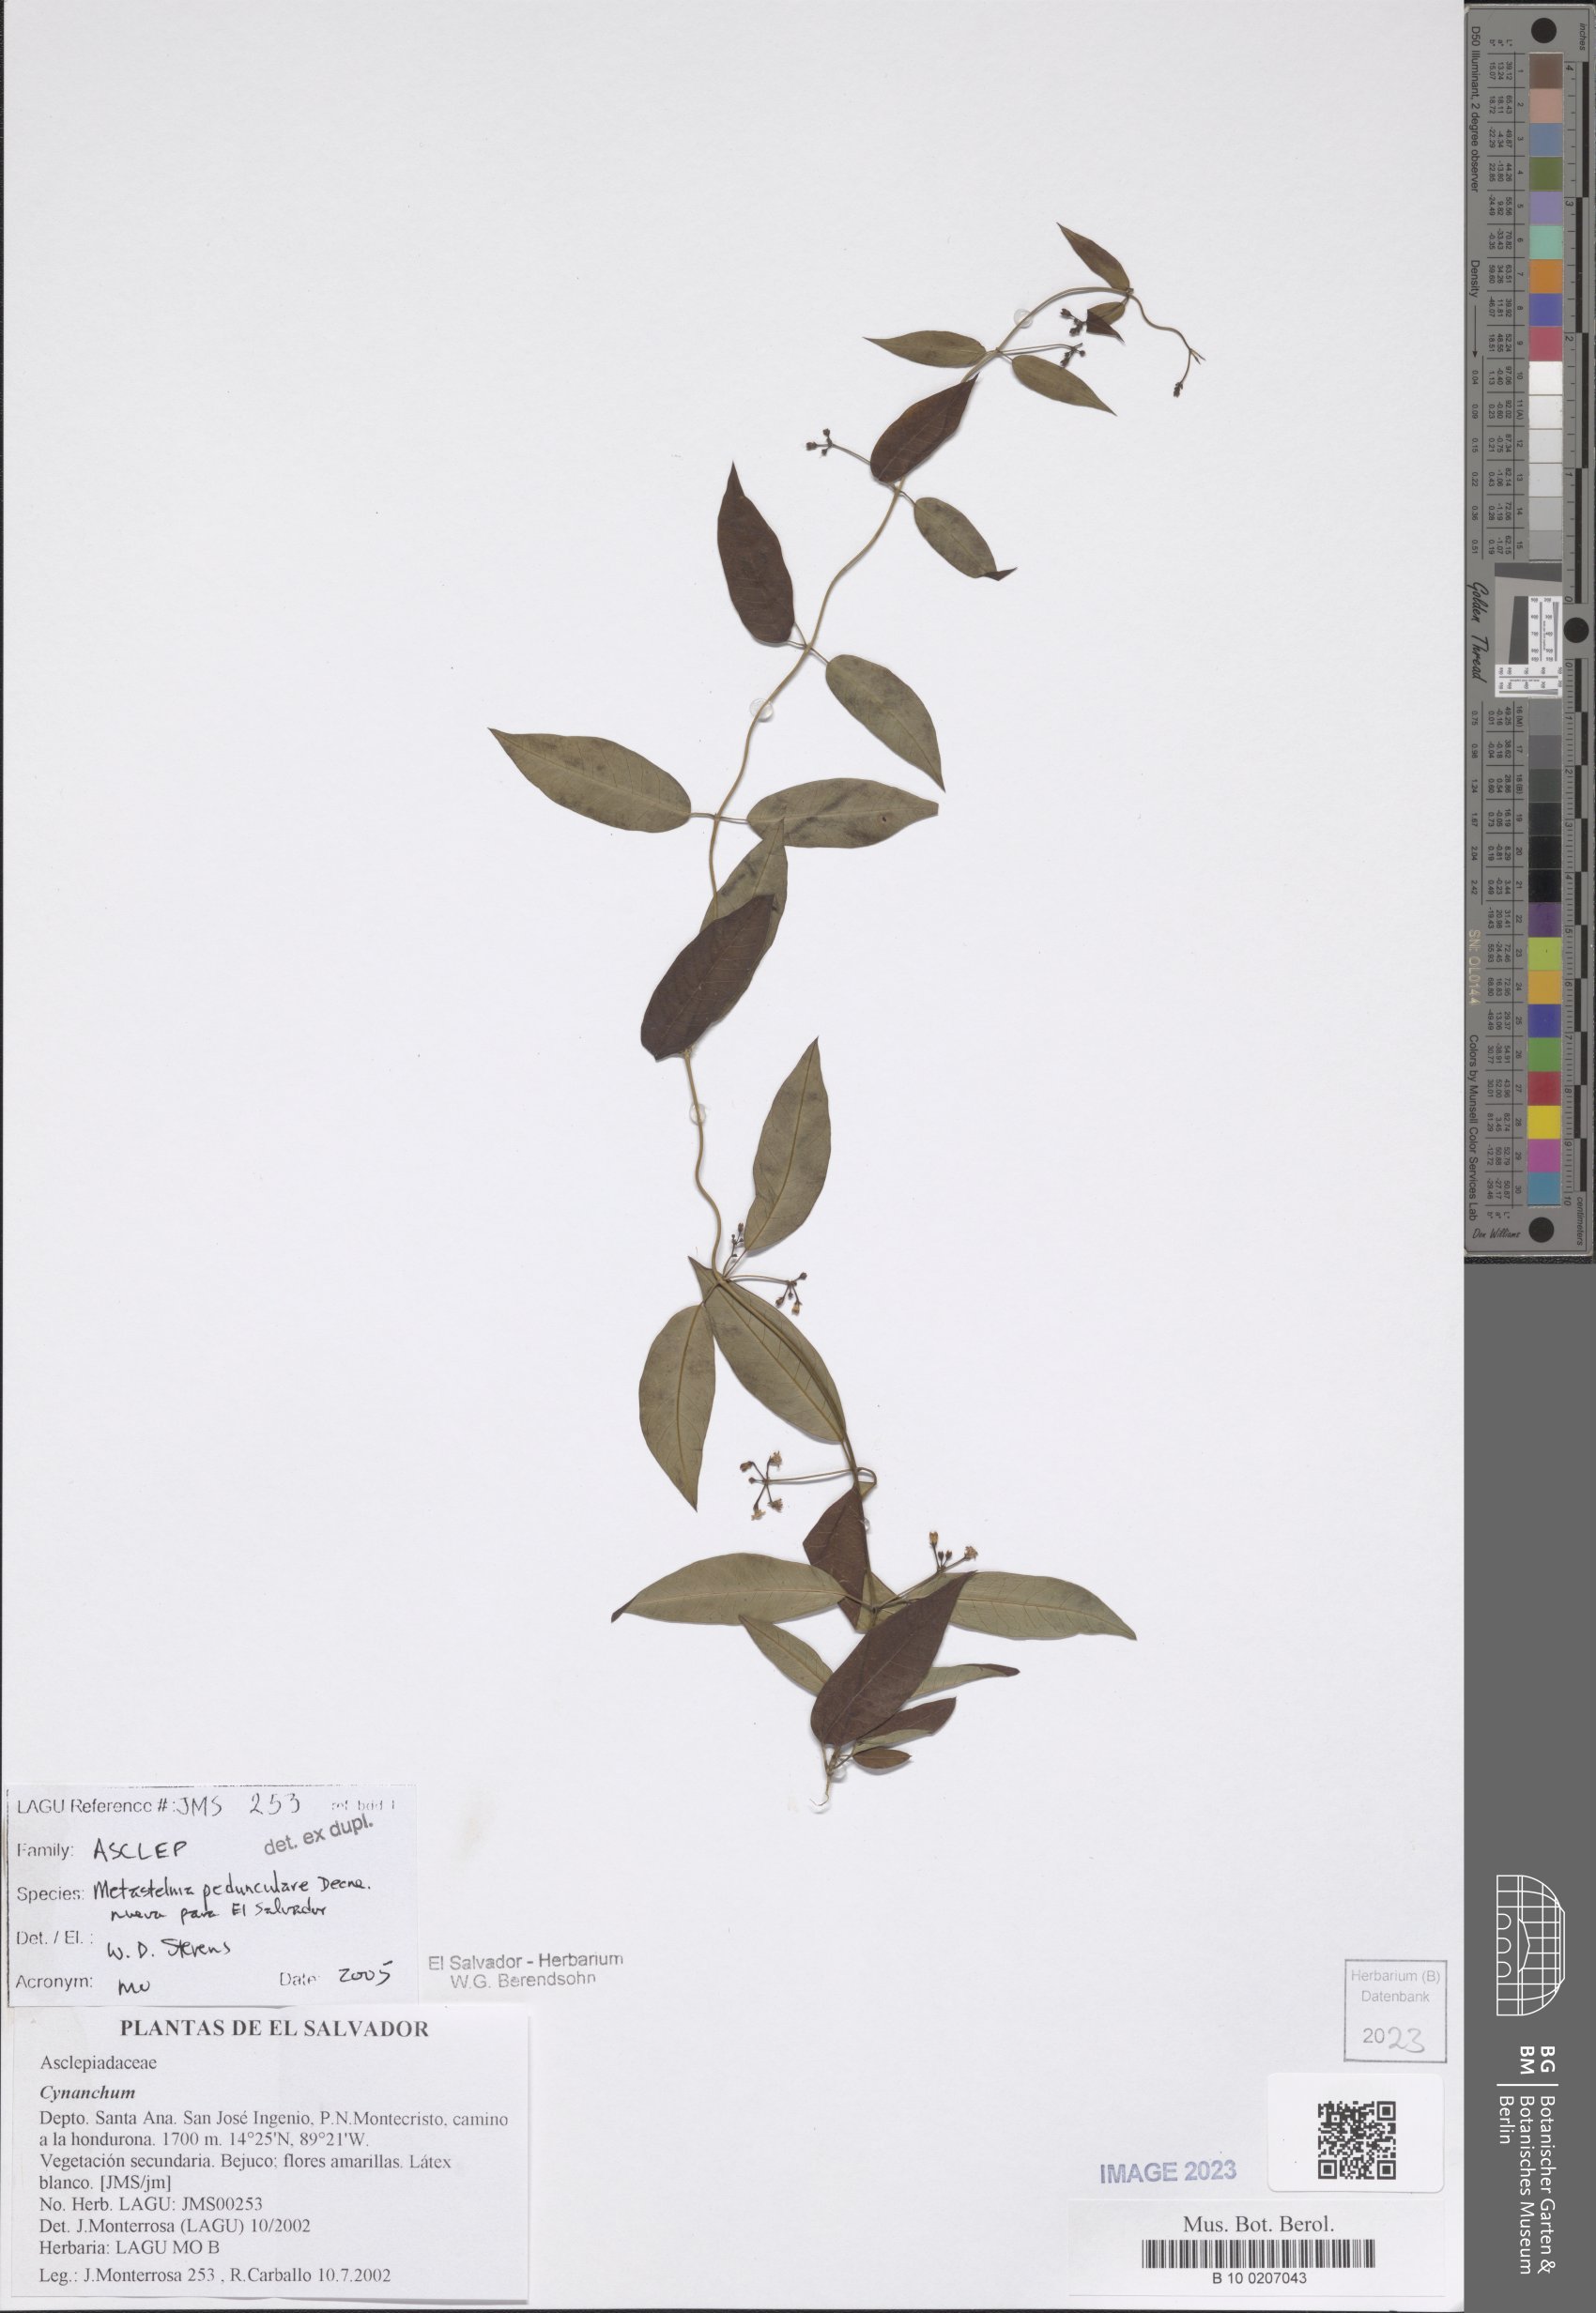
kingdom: Plantae
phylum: Tracheophyta
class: Magnoliopsida
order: Gentianales
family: Apocynaceae
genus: Metastelma
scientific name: Metastelma pedunculare
